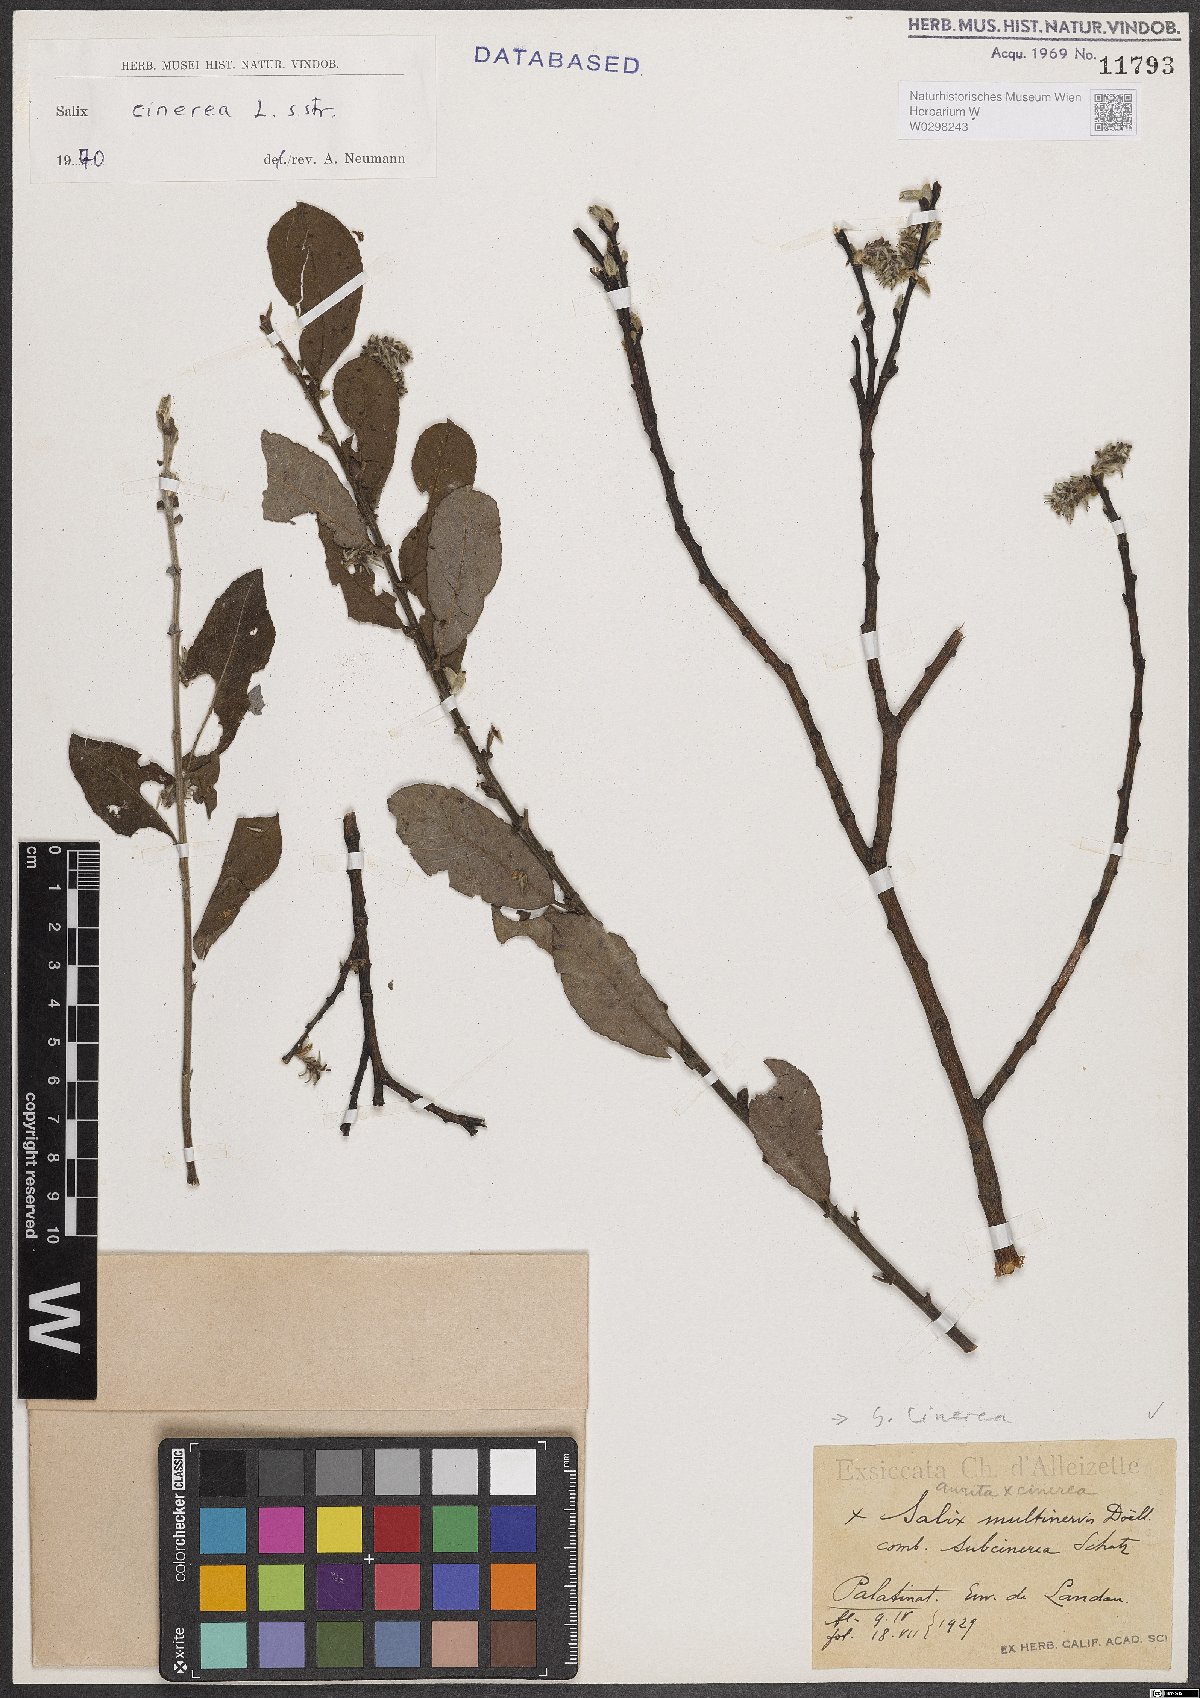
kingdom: Plantae
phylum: Tracheophyta
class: Magnoliopsida
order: Malpighiales
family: Salicaceae
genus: Salix
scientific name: Salix cinerea
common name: Common sallow
